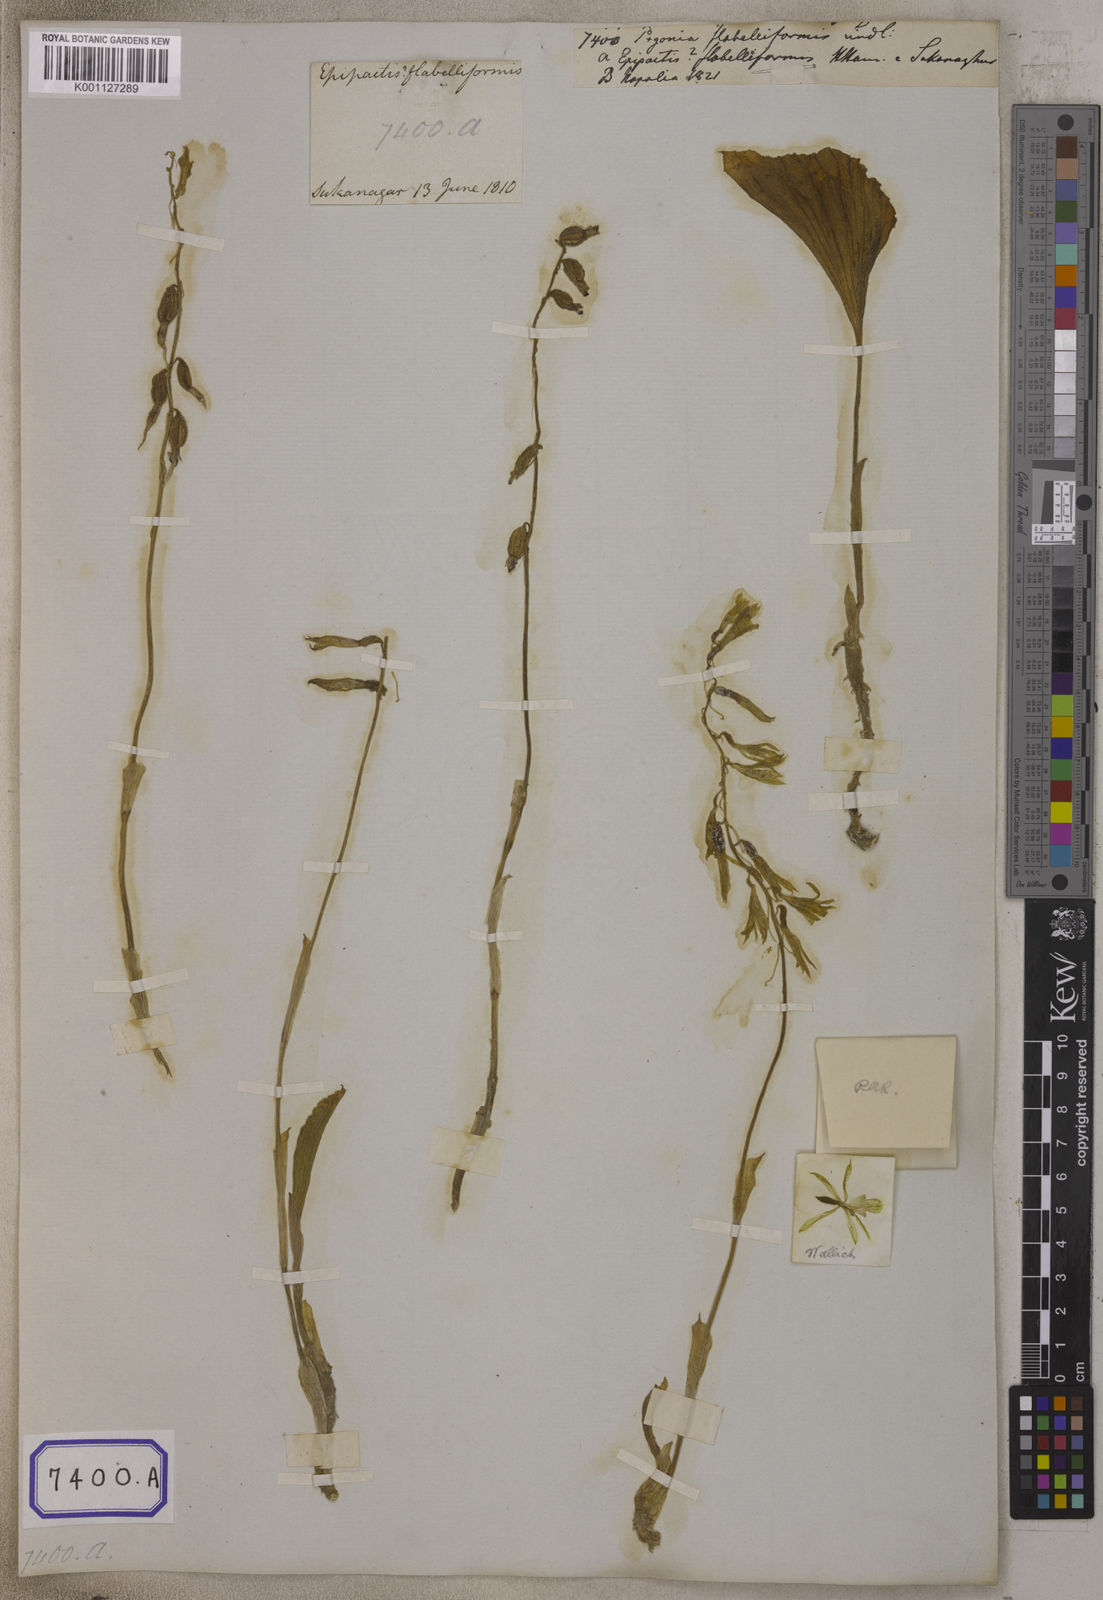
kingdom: Plantae
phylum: Tracheophyta
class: Liliopsida
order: Asparagales
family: Orchidaceae
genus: Nervilia
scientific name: Nervilia concolor
